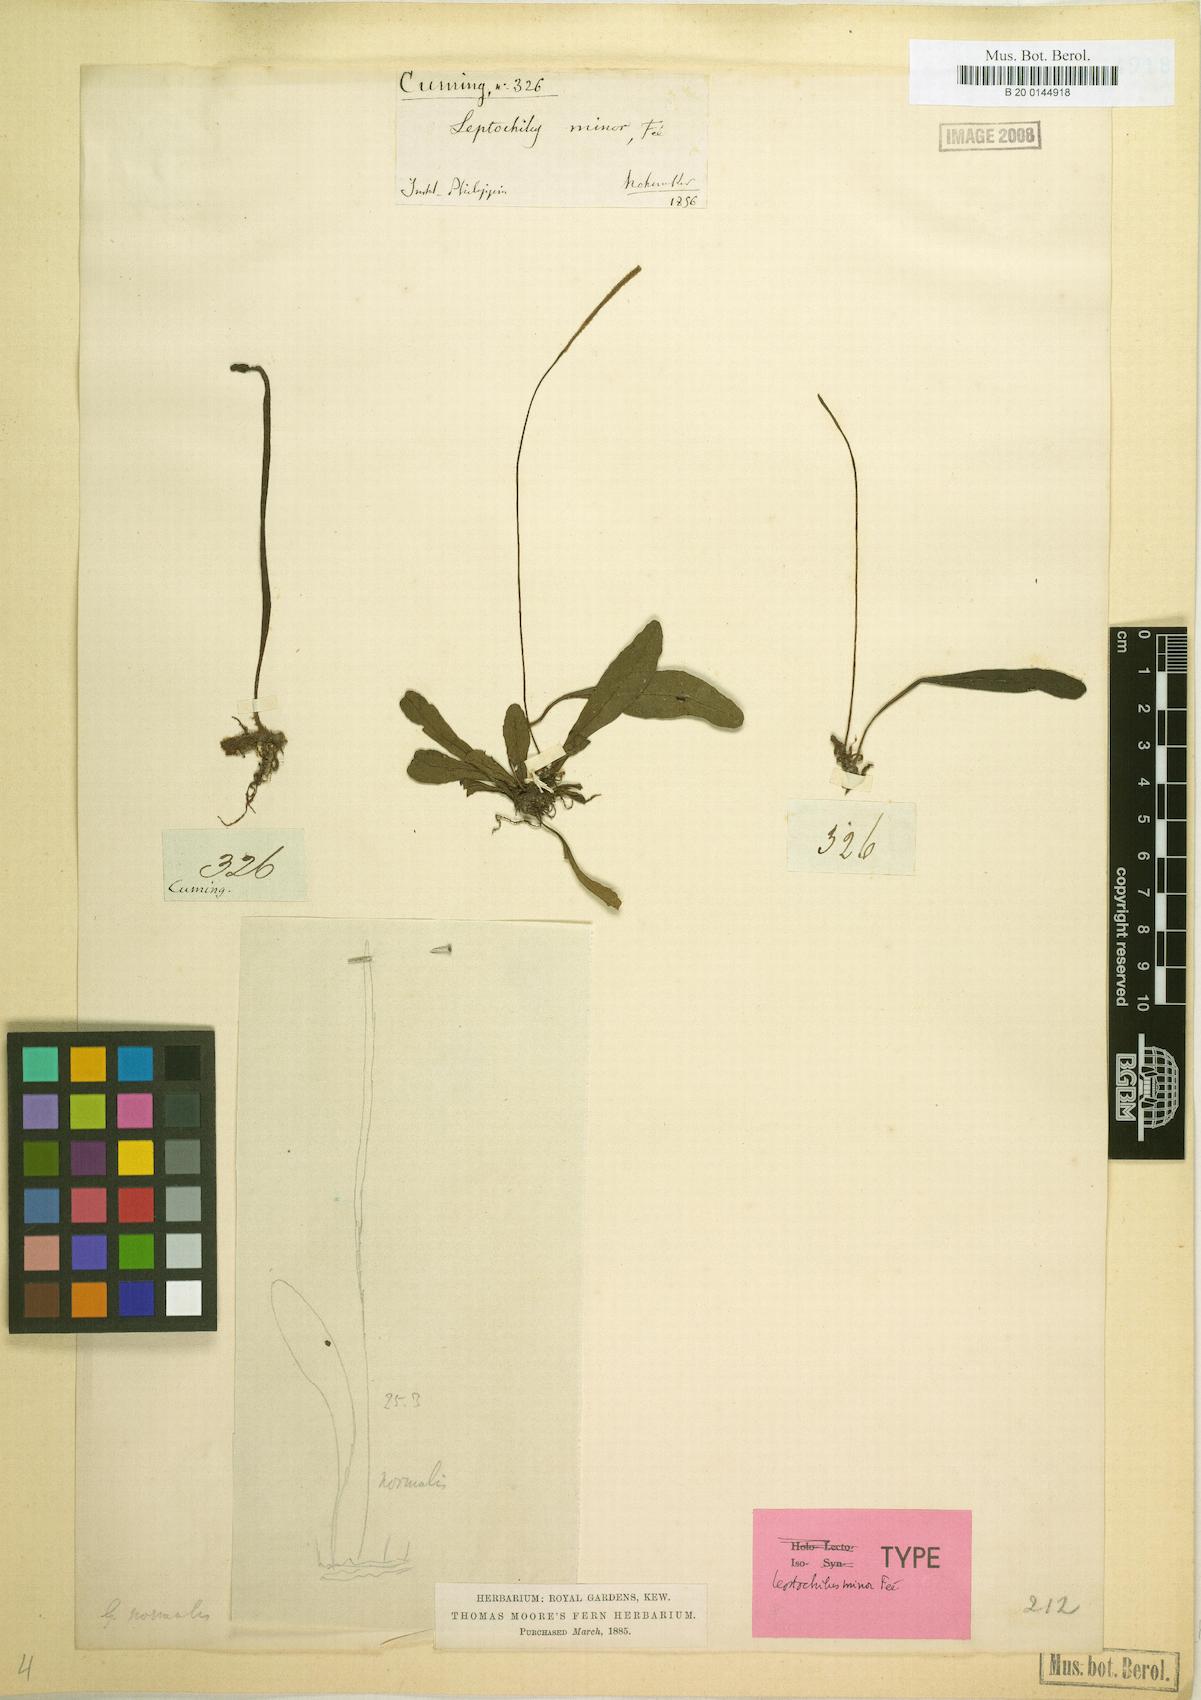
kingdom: Plantae
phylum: Tracheophyta
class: Polypodiopsida
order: Polypodiales
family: Polypodiaceae
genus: Leptochilus
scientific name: Leptochilus minor
